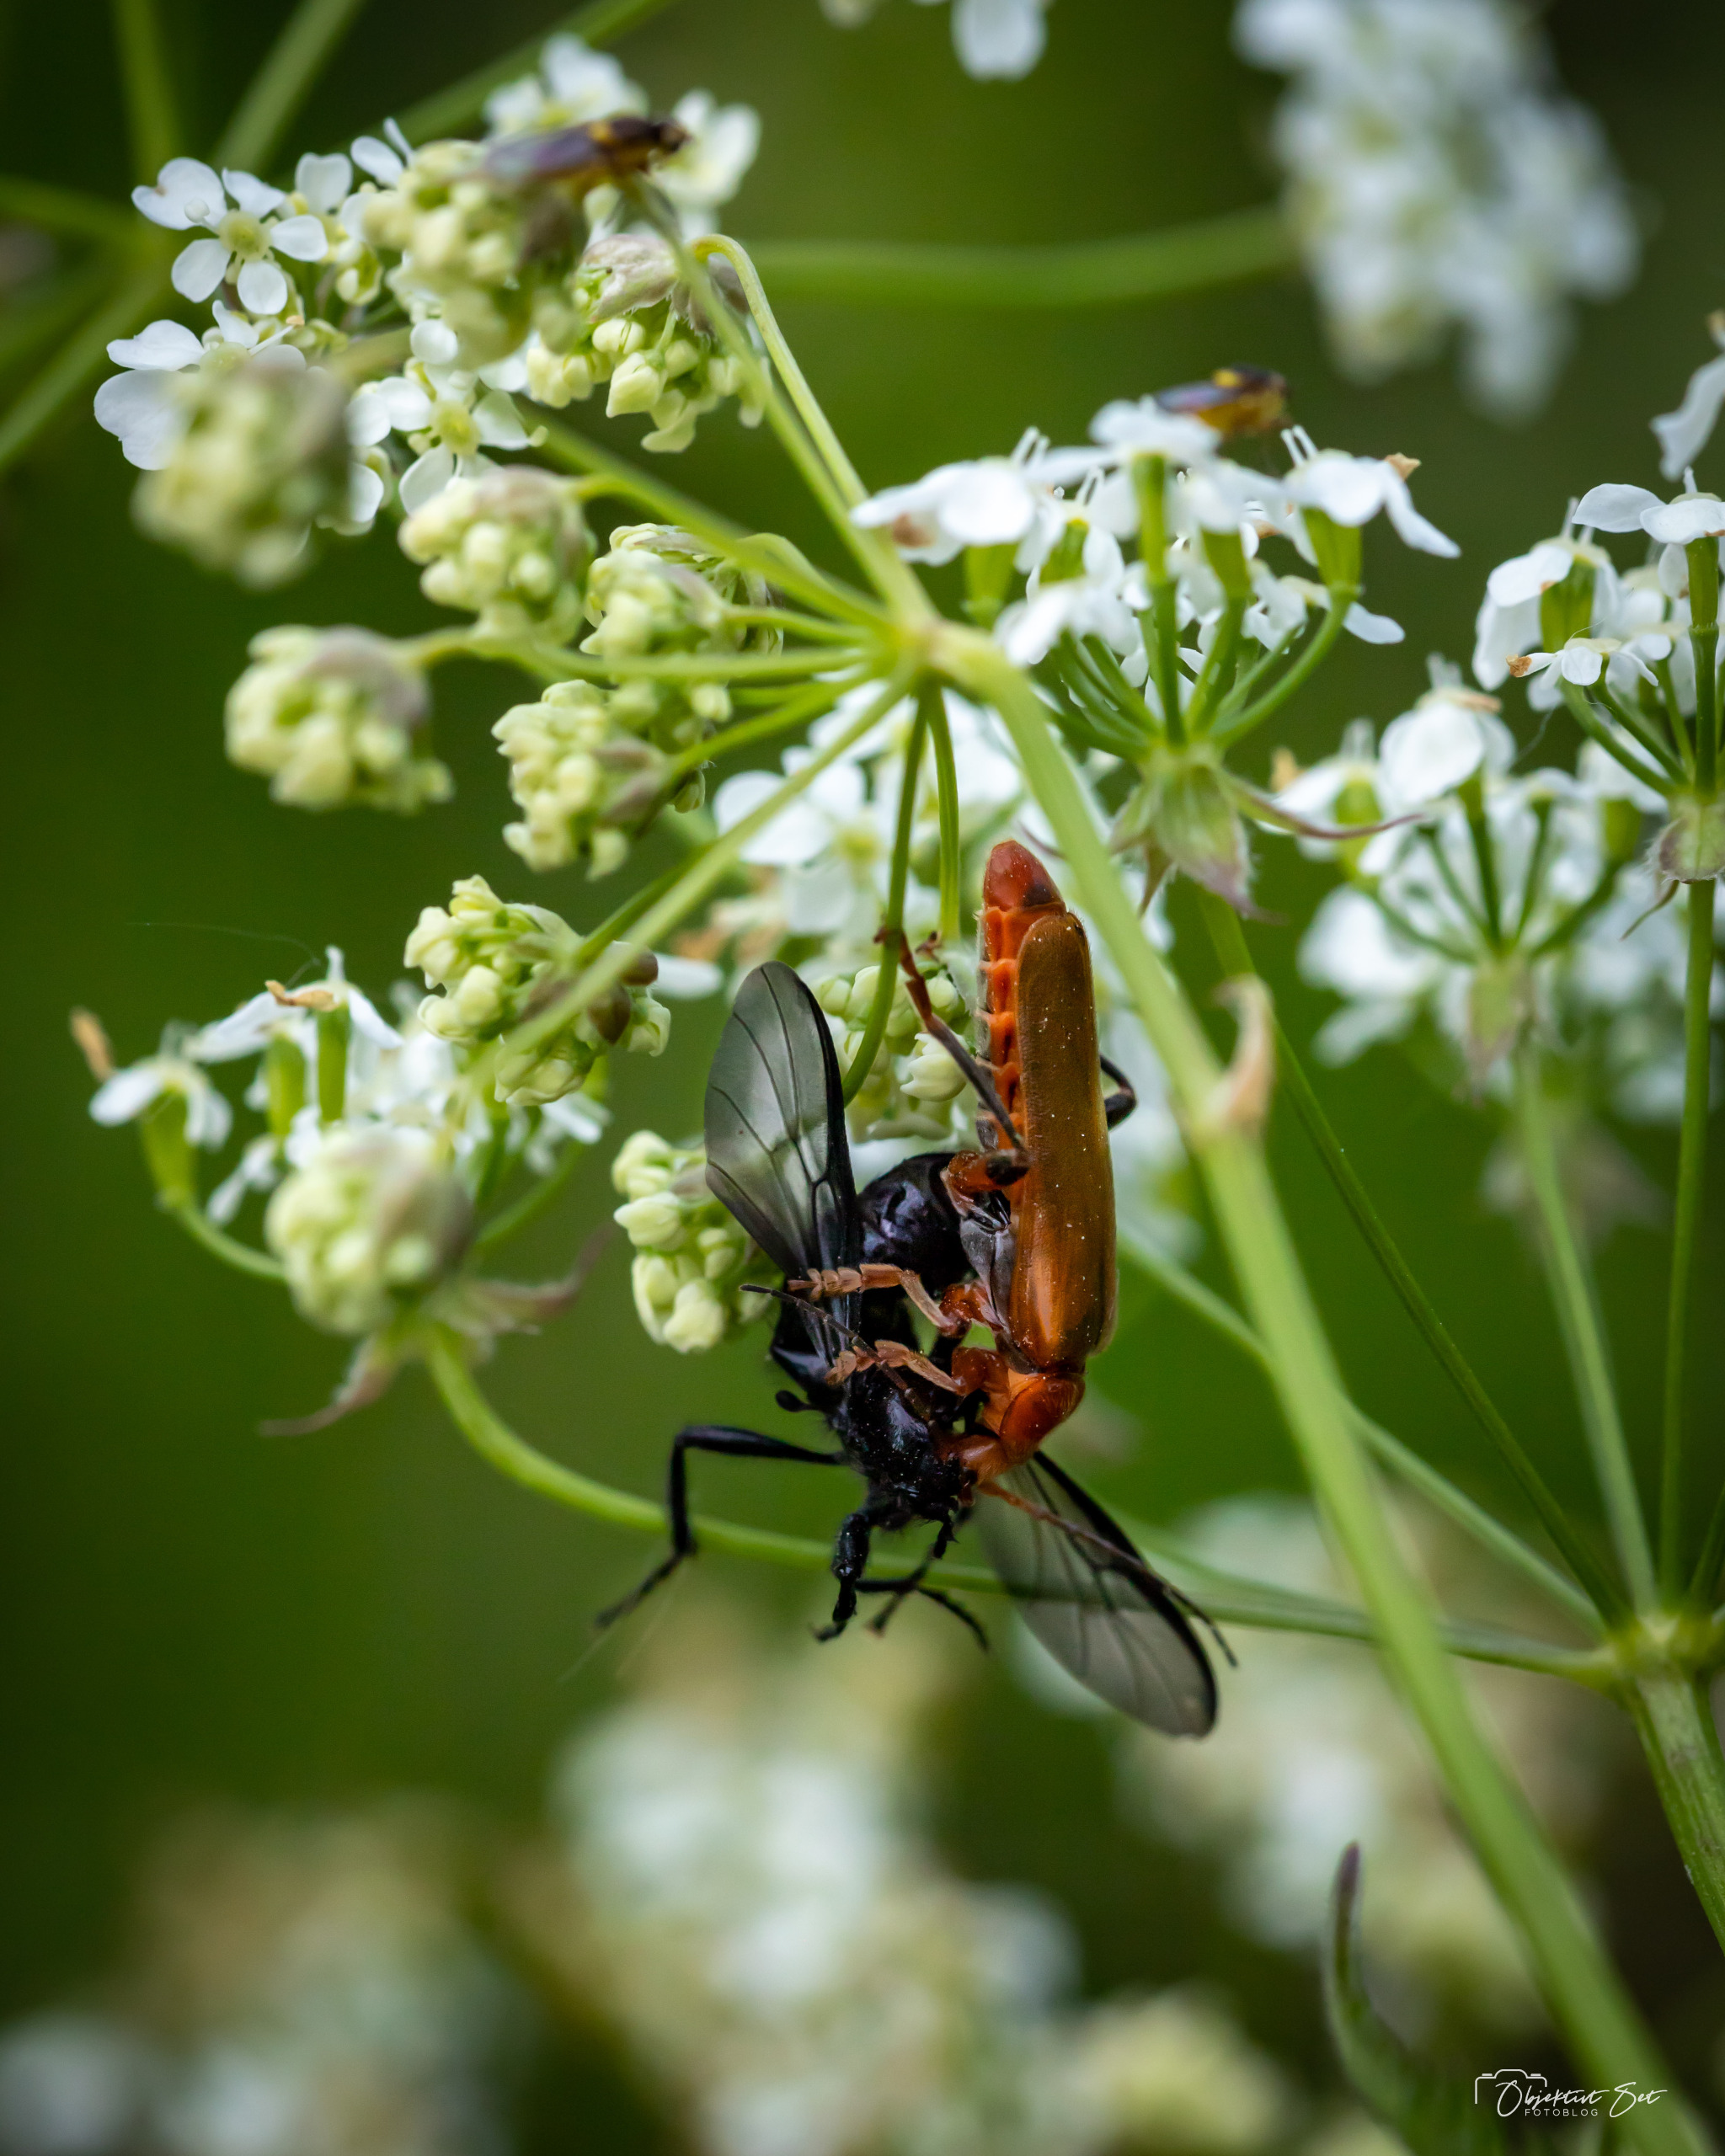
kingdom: Animalia
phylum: Arthropoda
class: Insecta
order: Coleoptera
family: Cantharidae
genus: Cantharis
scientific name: Cantharis livida
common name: Gul blødvinge
